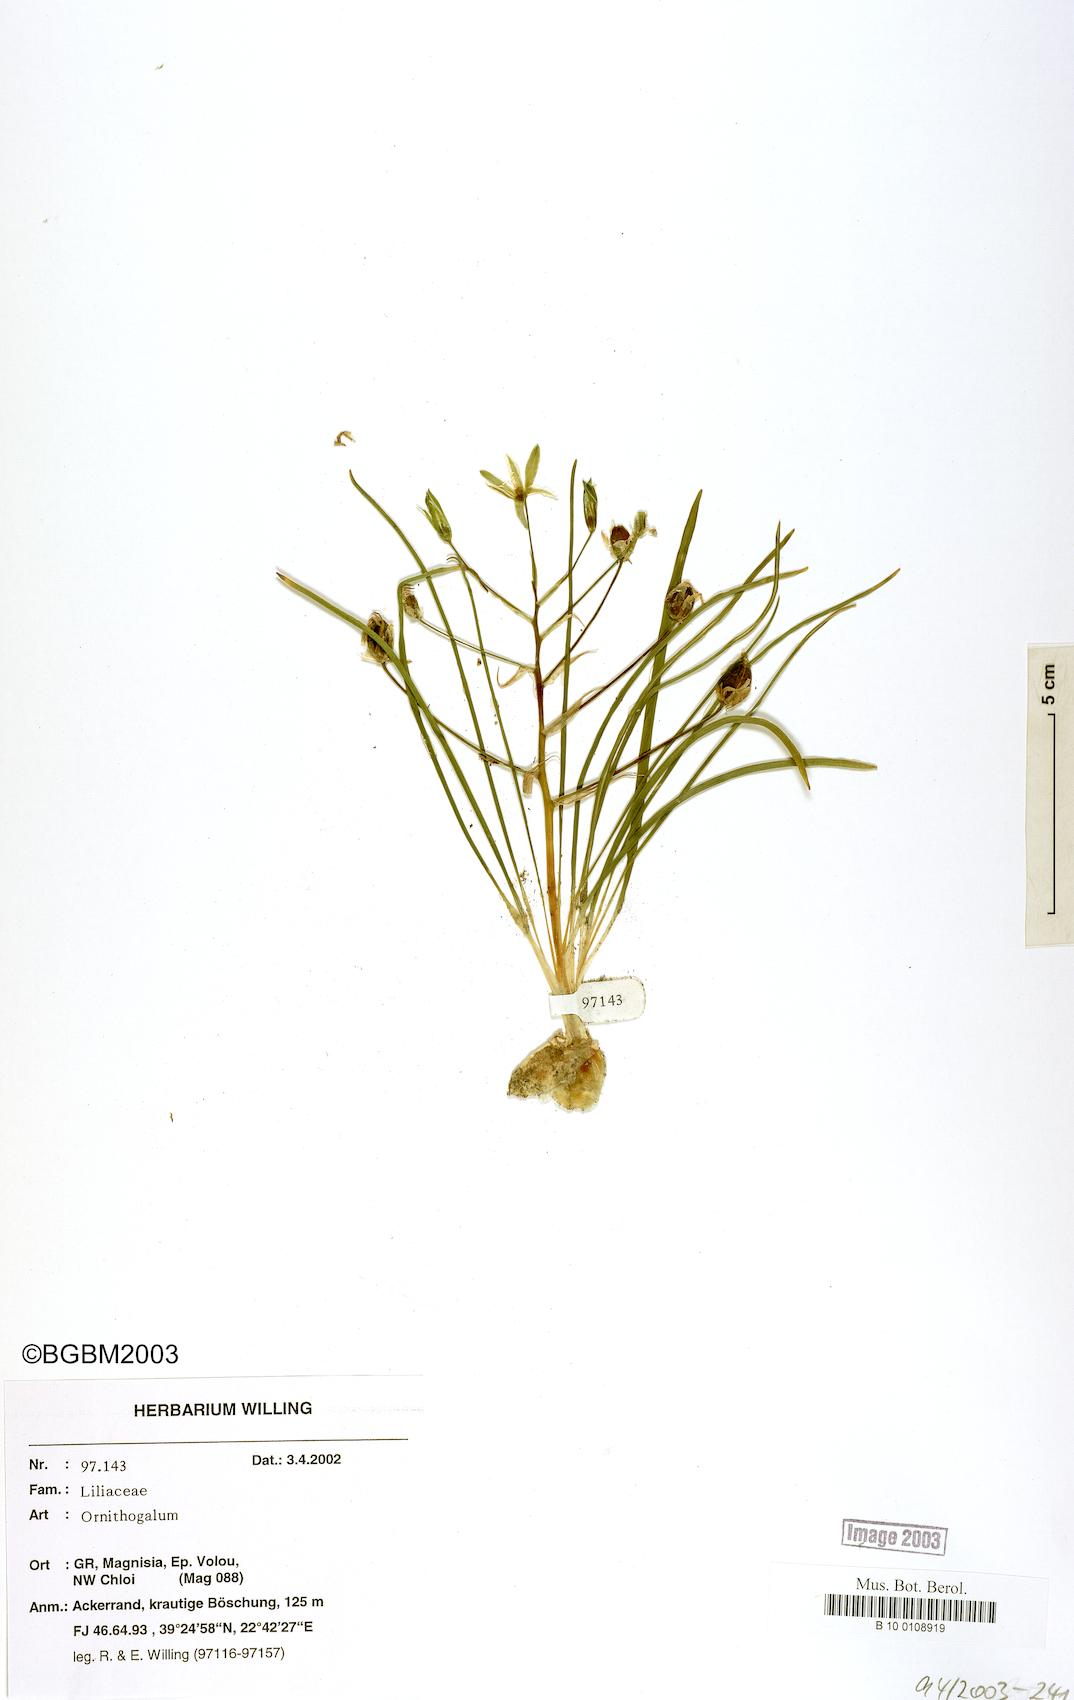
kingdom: Plantae
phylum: Tracheophyta
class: Liliopsida
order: Asparagales
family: Asparagaceae
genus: Ornithogalum
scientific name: Ornithogalum
